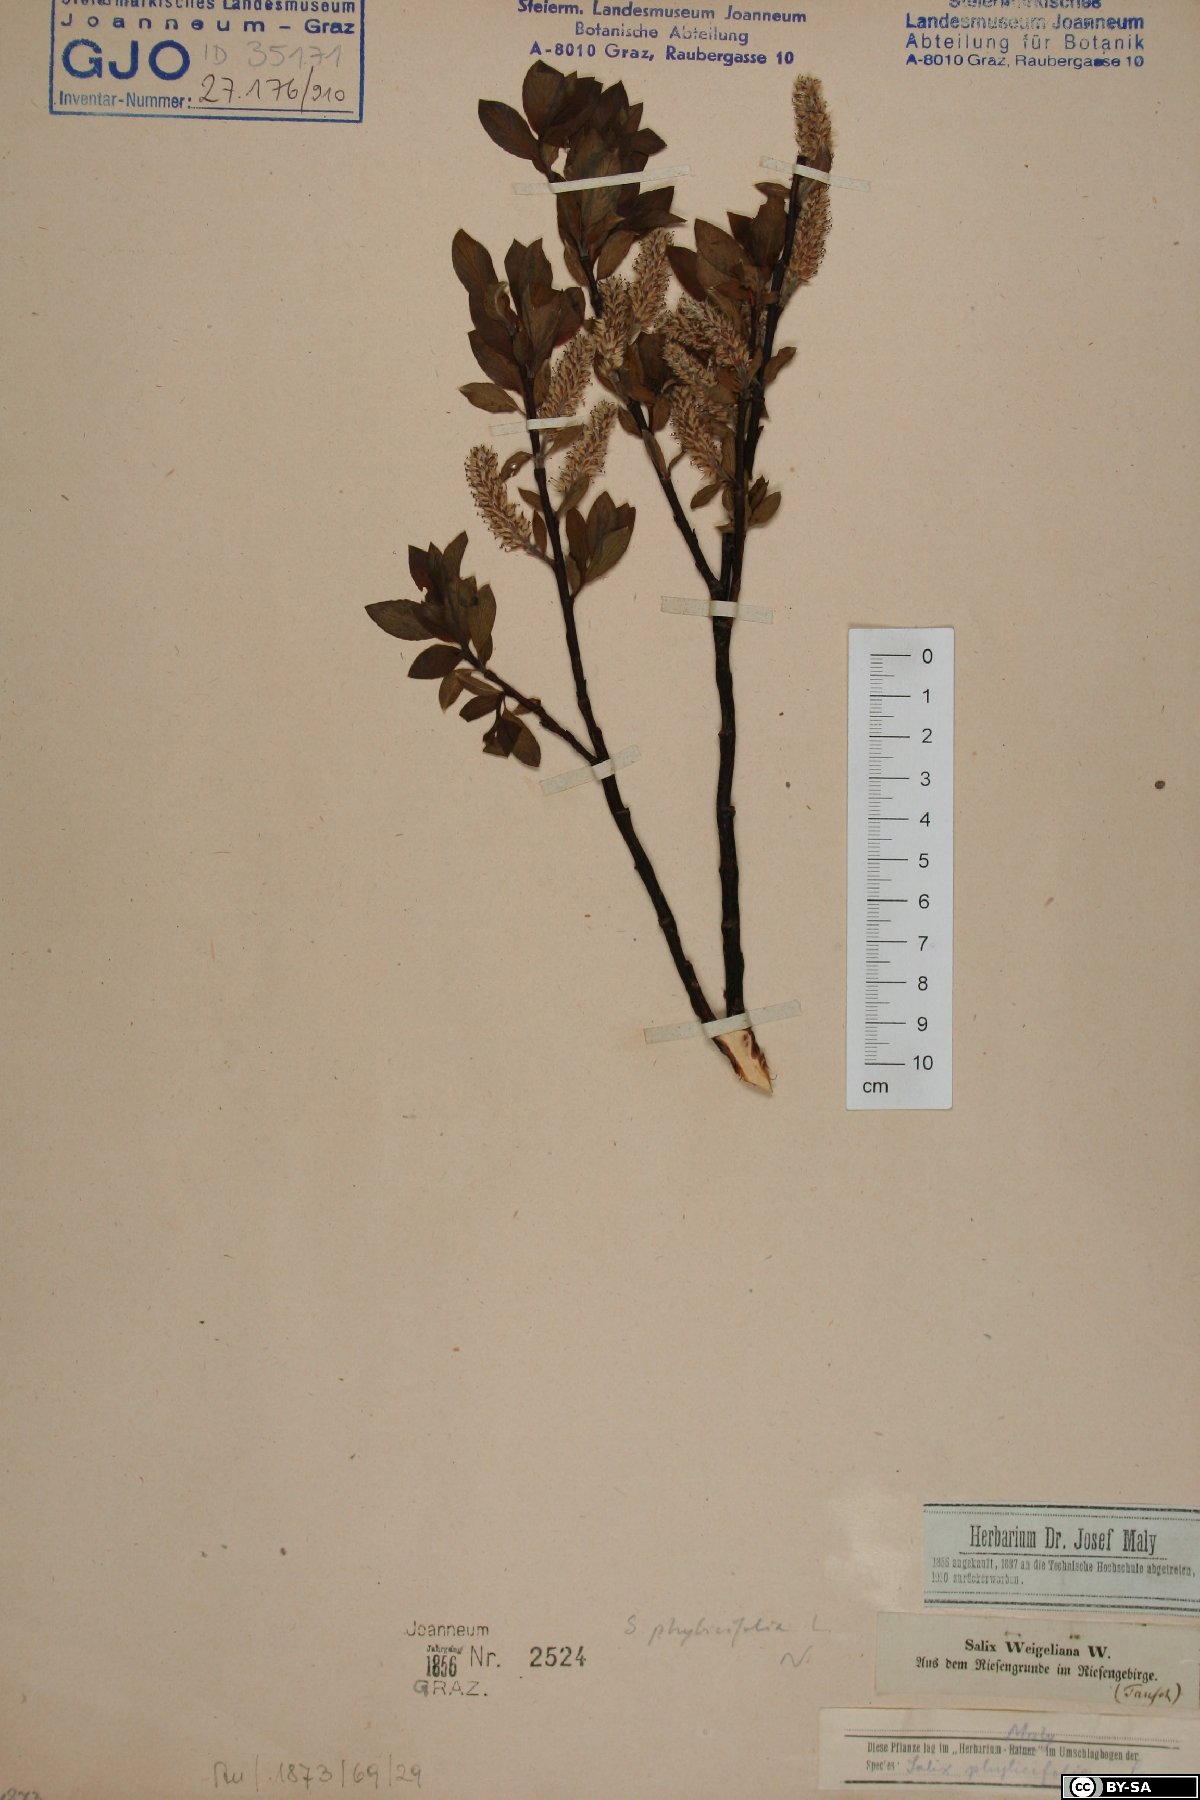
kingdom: Plantae
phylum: Tracheophyta
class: Magnoliopsida
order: Malpighiales
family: Salicaceae
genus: Salix
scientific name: Salix phylicifolia
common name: Tea-leaved willow
